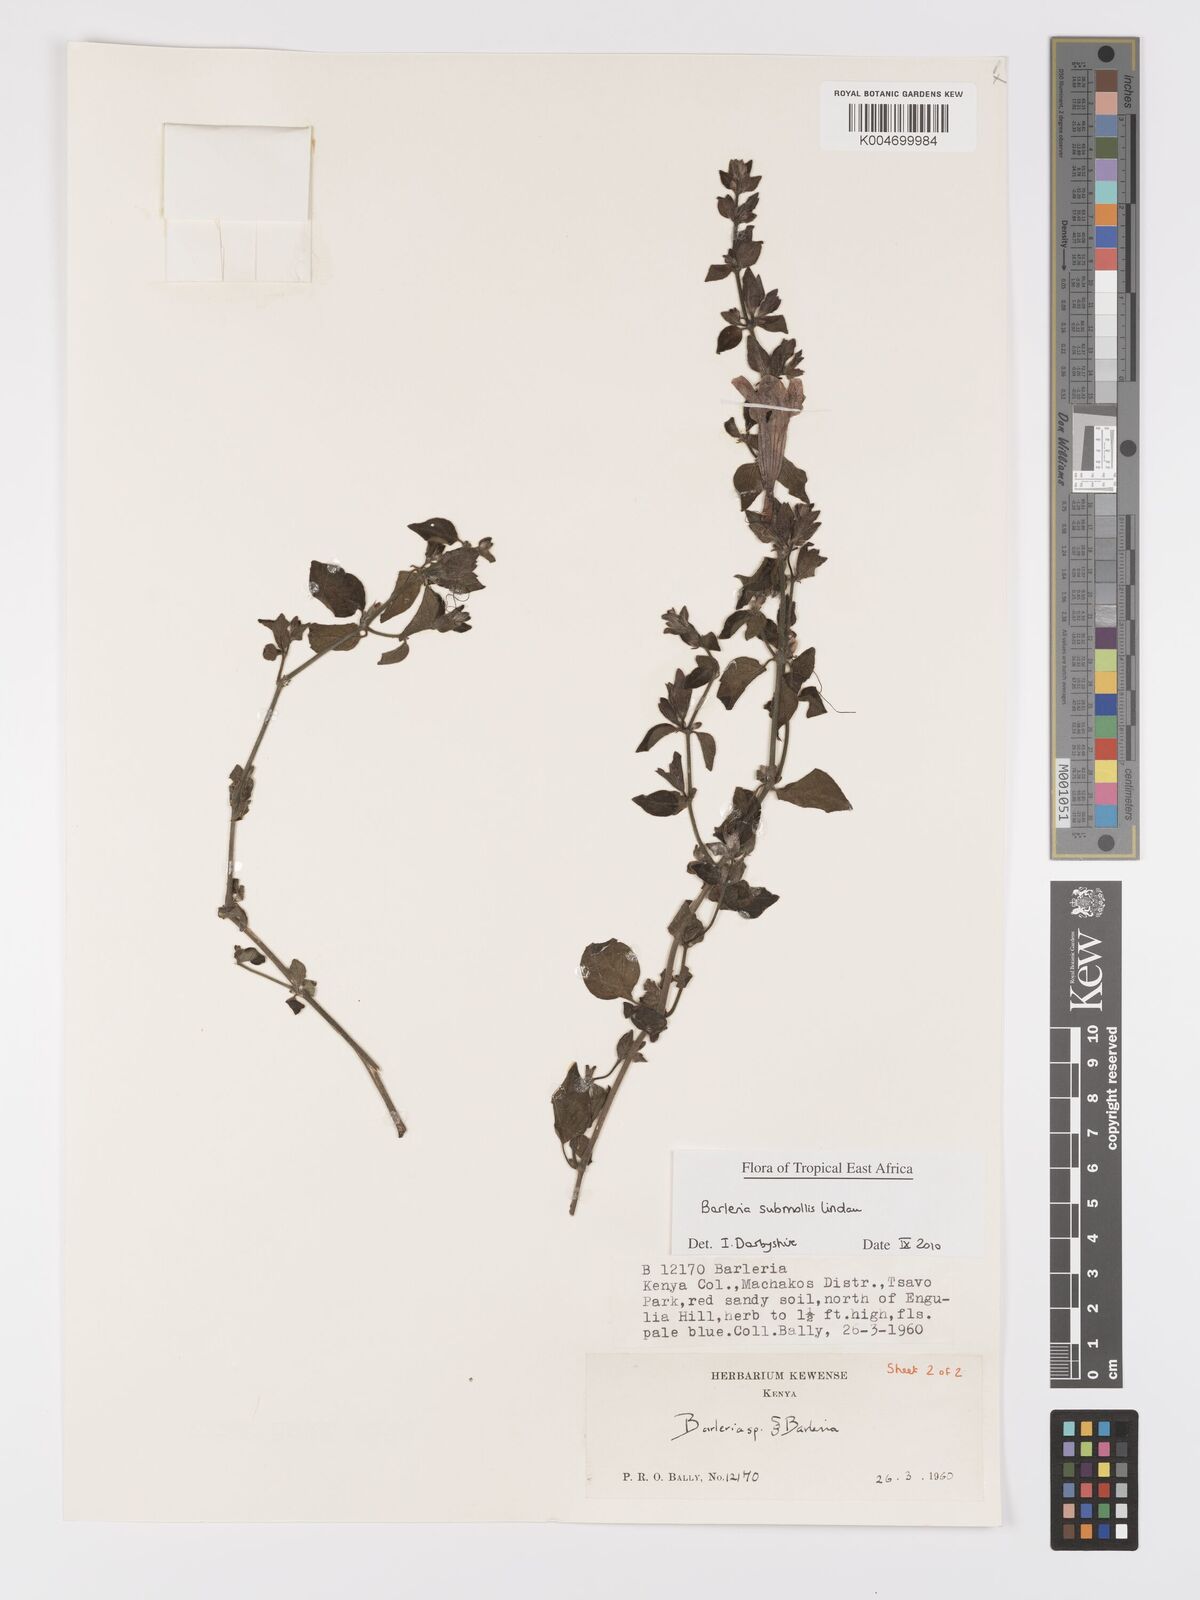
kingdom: Plantae
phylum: Tracheophyta
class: Magnoliopsida
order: Lamiales
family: Acanthaceae
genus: Barleria
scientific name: Barleria submollis
